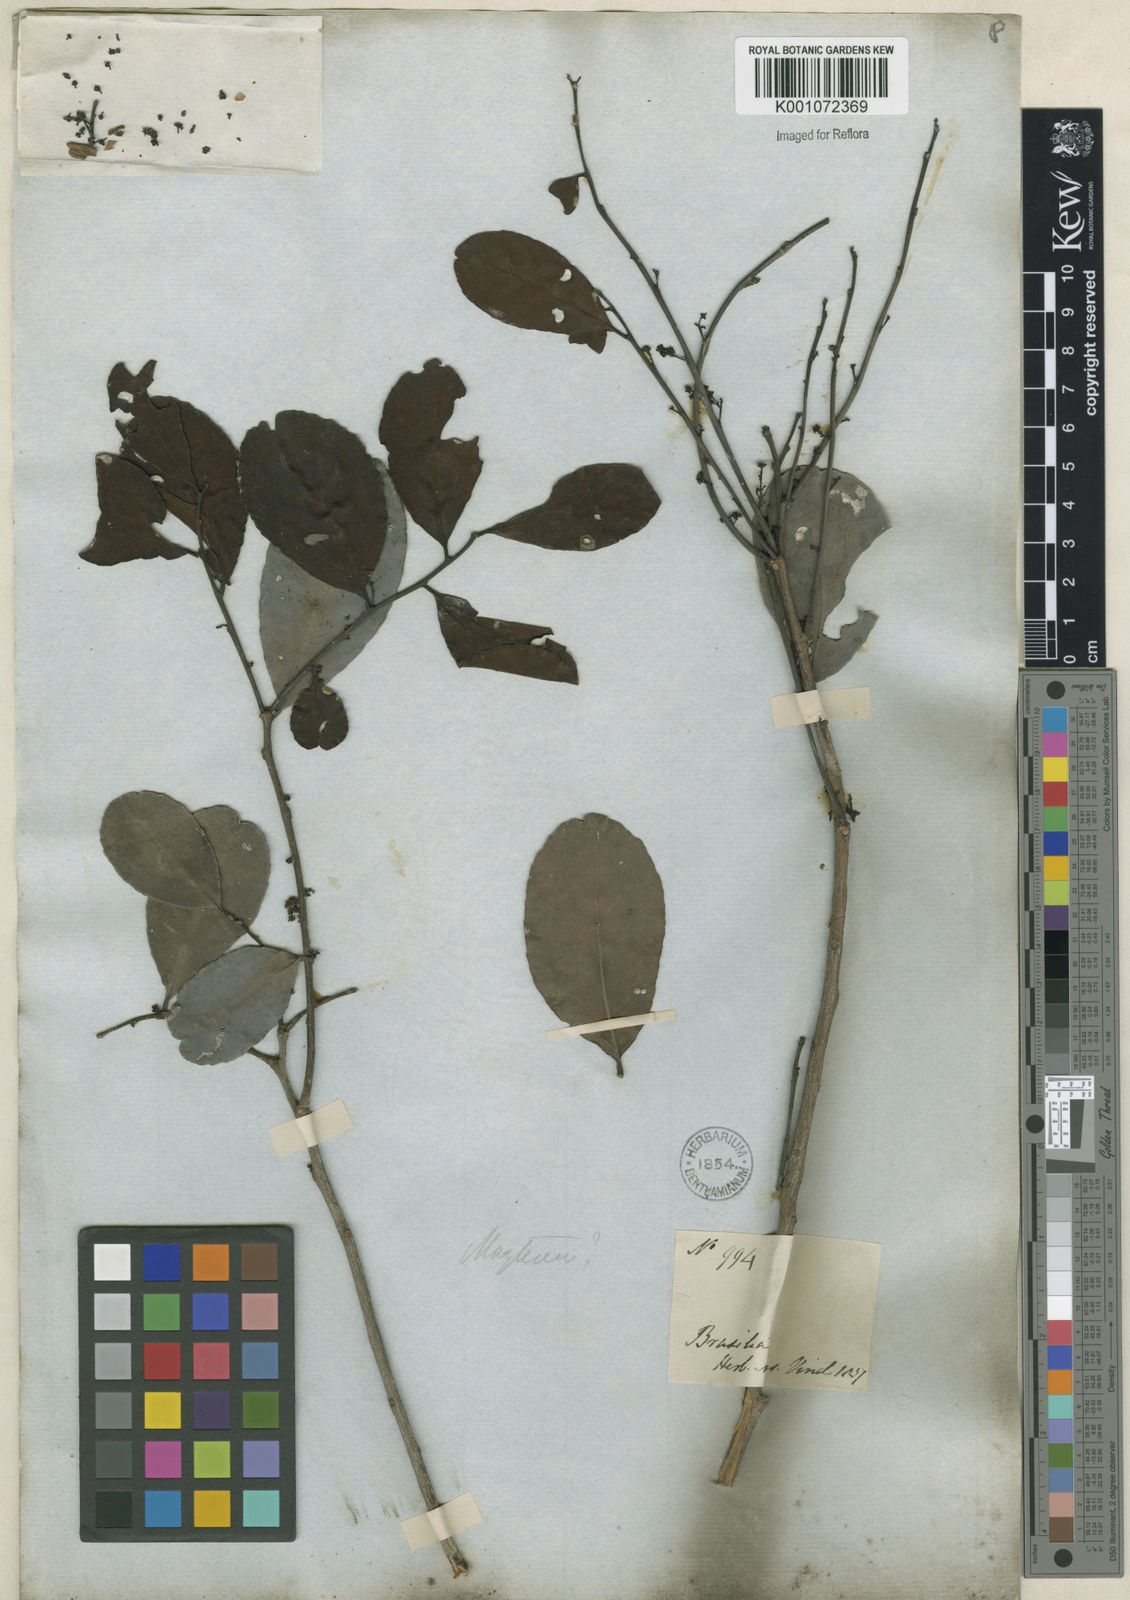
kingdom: Plantae
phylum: Tracheophyta
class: Magnoliopsida
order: Celastrales
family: Celastraceae
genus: Maytenus
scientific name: Maytenus
